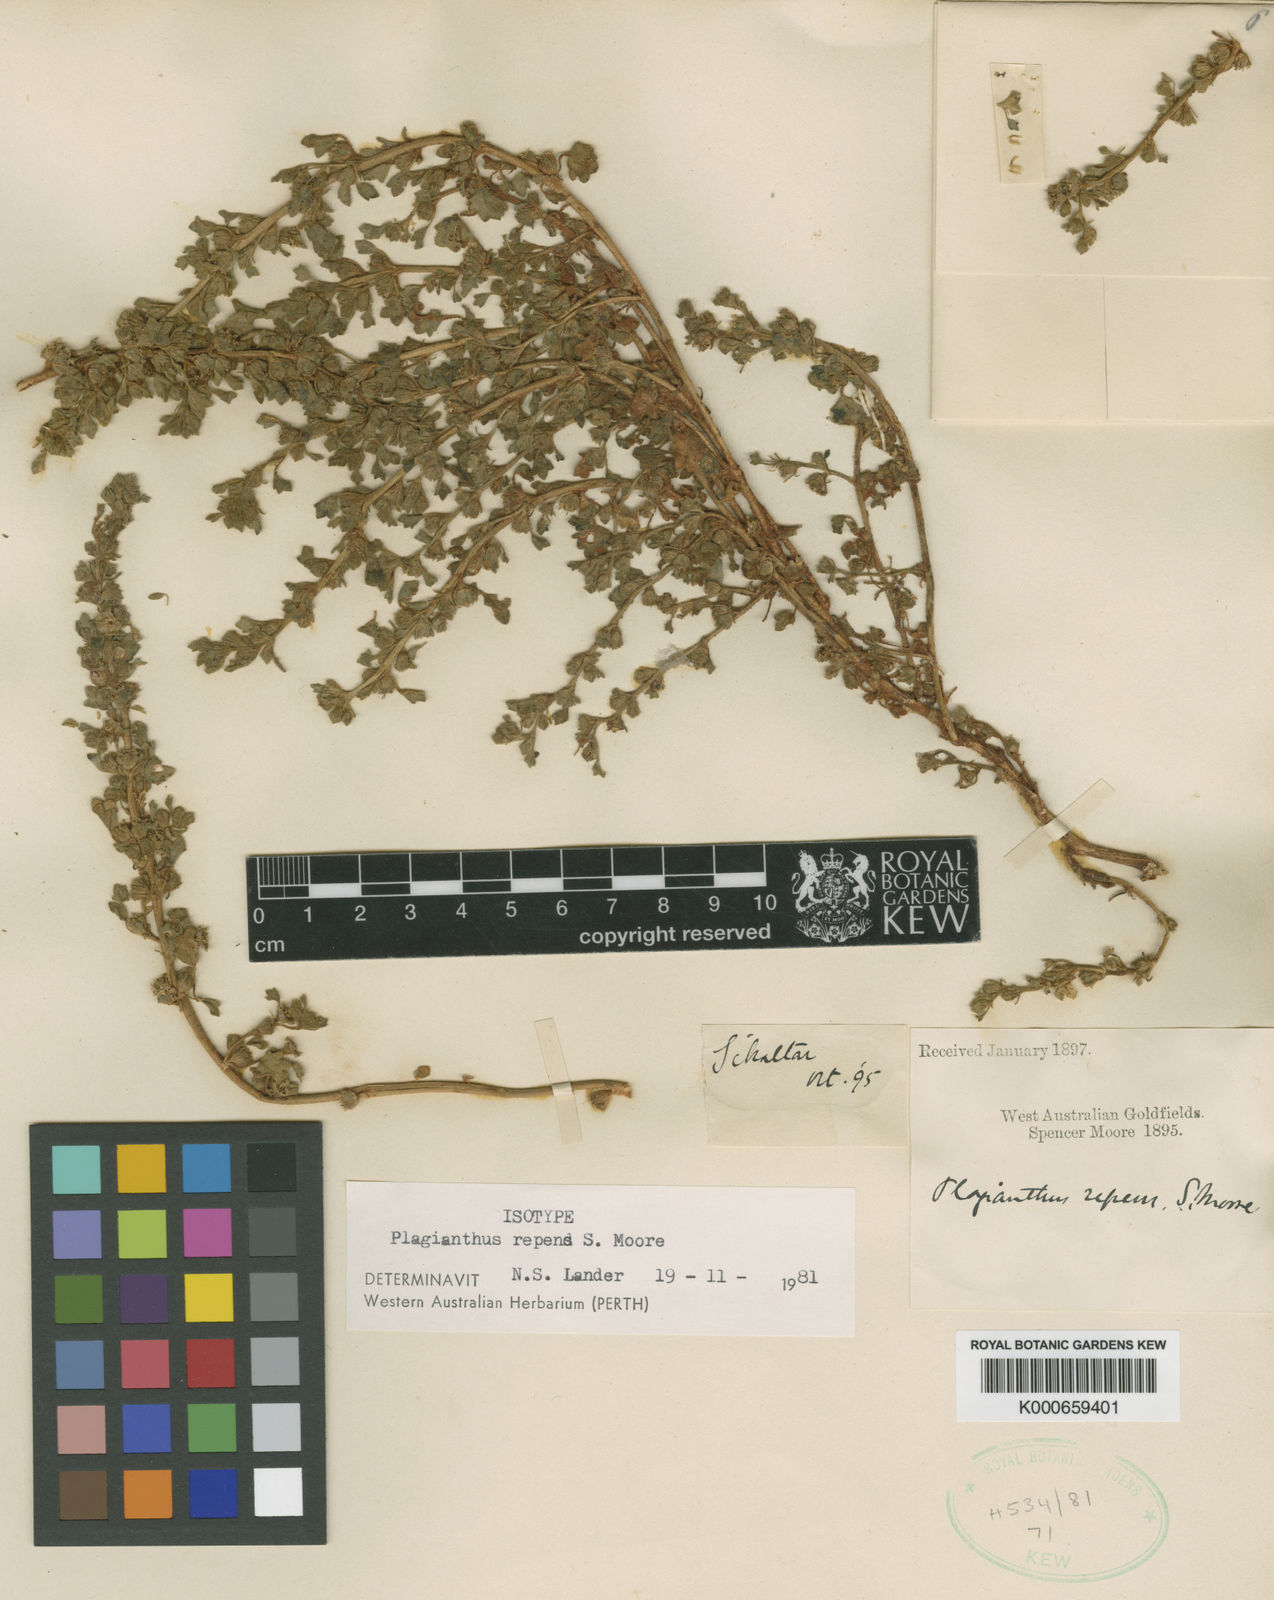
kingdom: Plantae
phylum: Tracheophyta
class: Magnoliopsida
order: Malvales
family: Malvaceae
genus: Lawrencia
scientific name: Lawrencia repens
